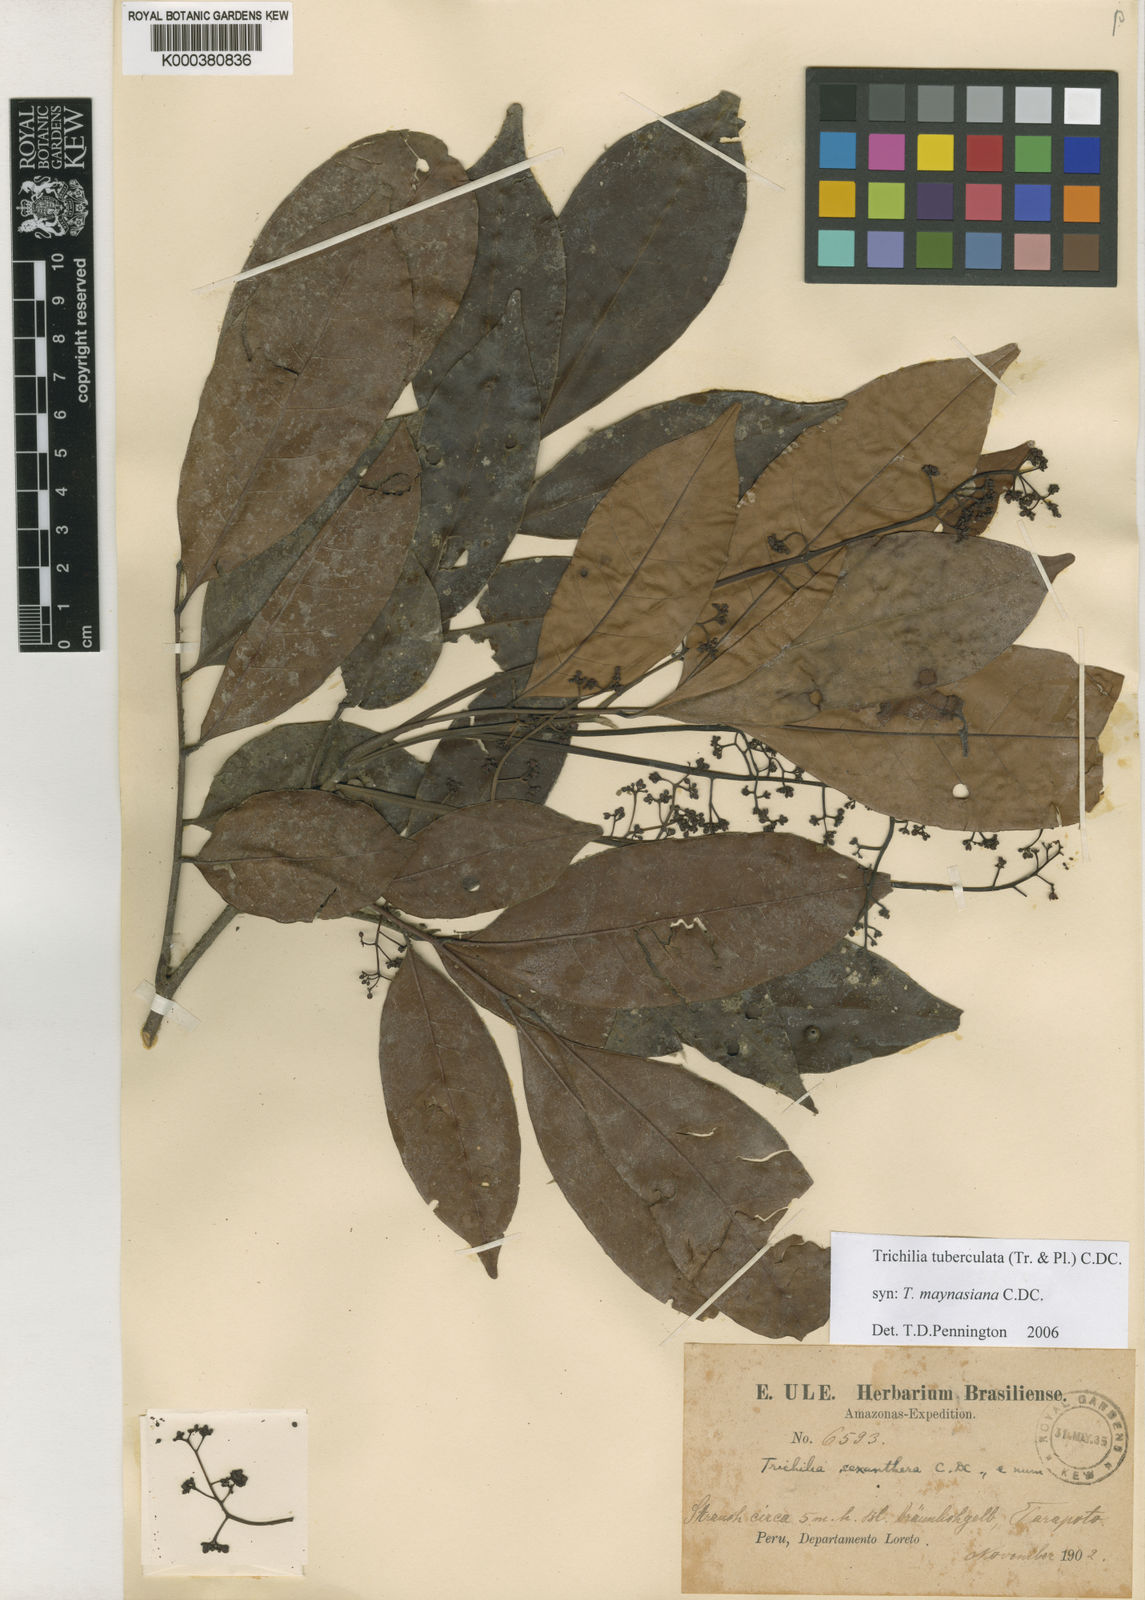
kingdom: Plantae
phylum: Tracheophyta
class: Magnoliopsida
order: Sapindales
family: Meliaceae
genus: Trichilia
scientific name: Trichilia maynasiana
